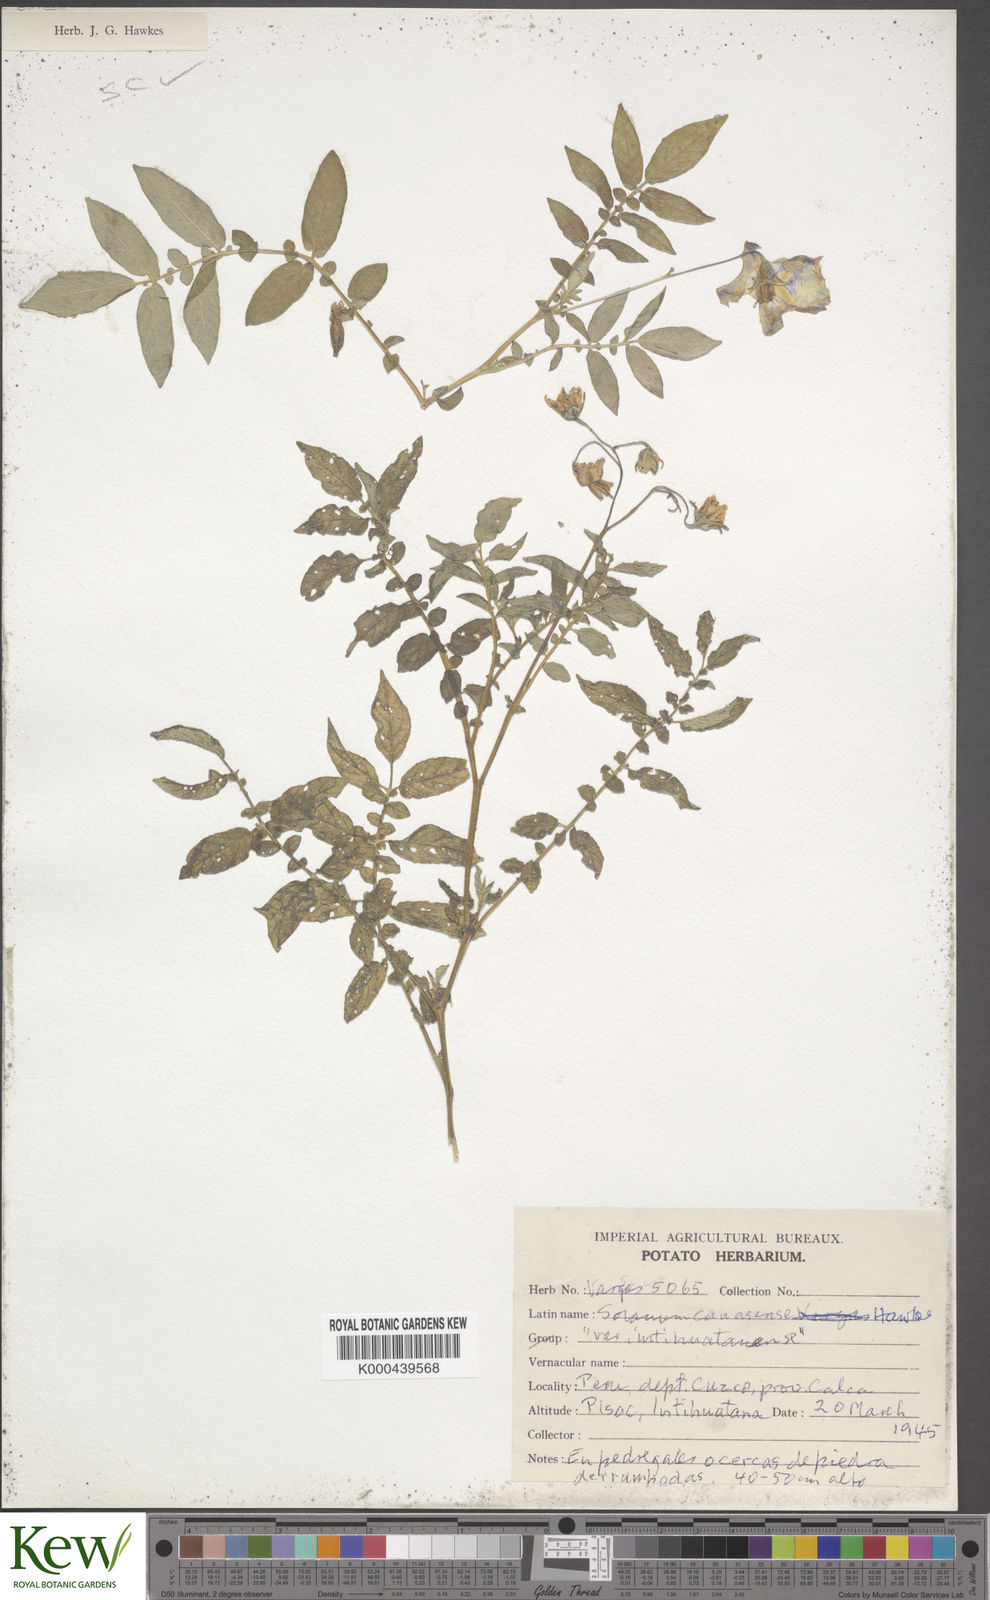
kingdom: Plantae
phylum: Tracheophyta
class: Magnoliopsida
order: Solanales
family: Solanaceae
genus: Solanum
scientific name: Solanum candolleanum
